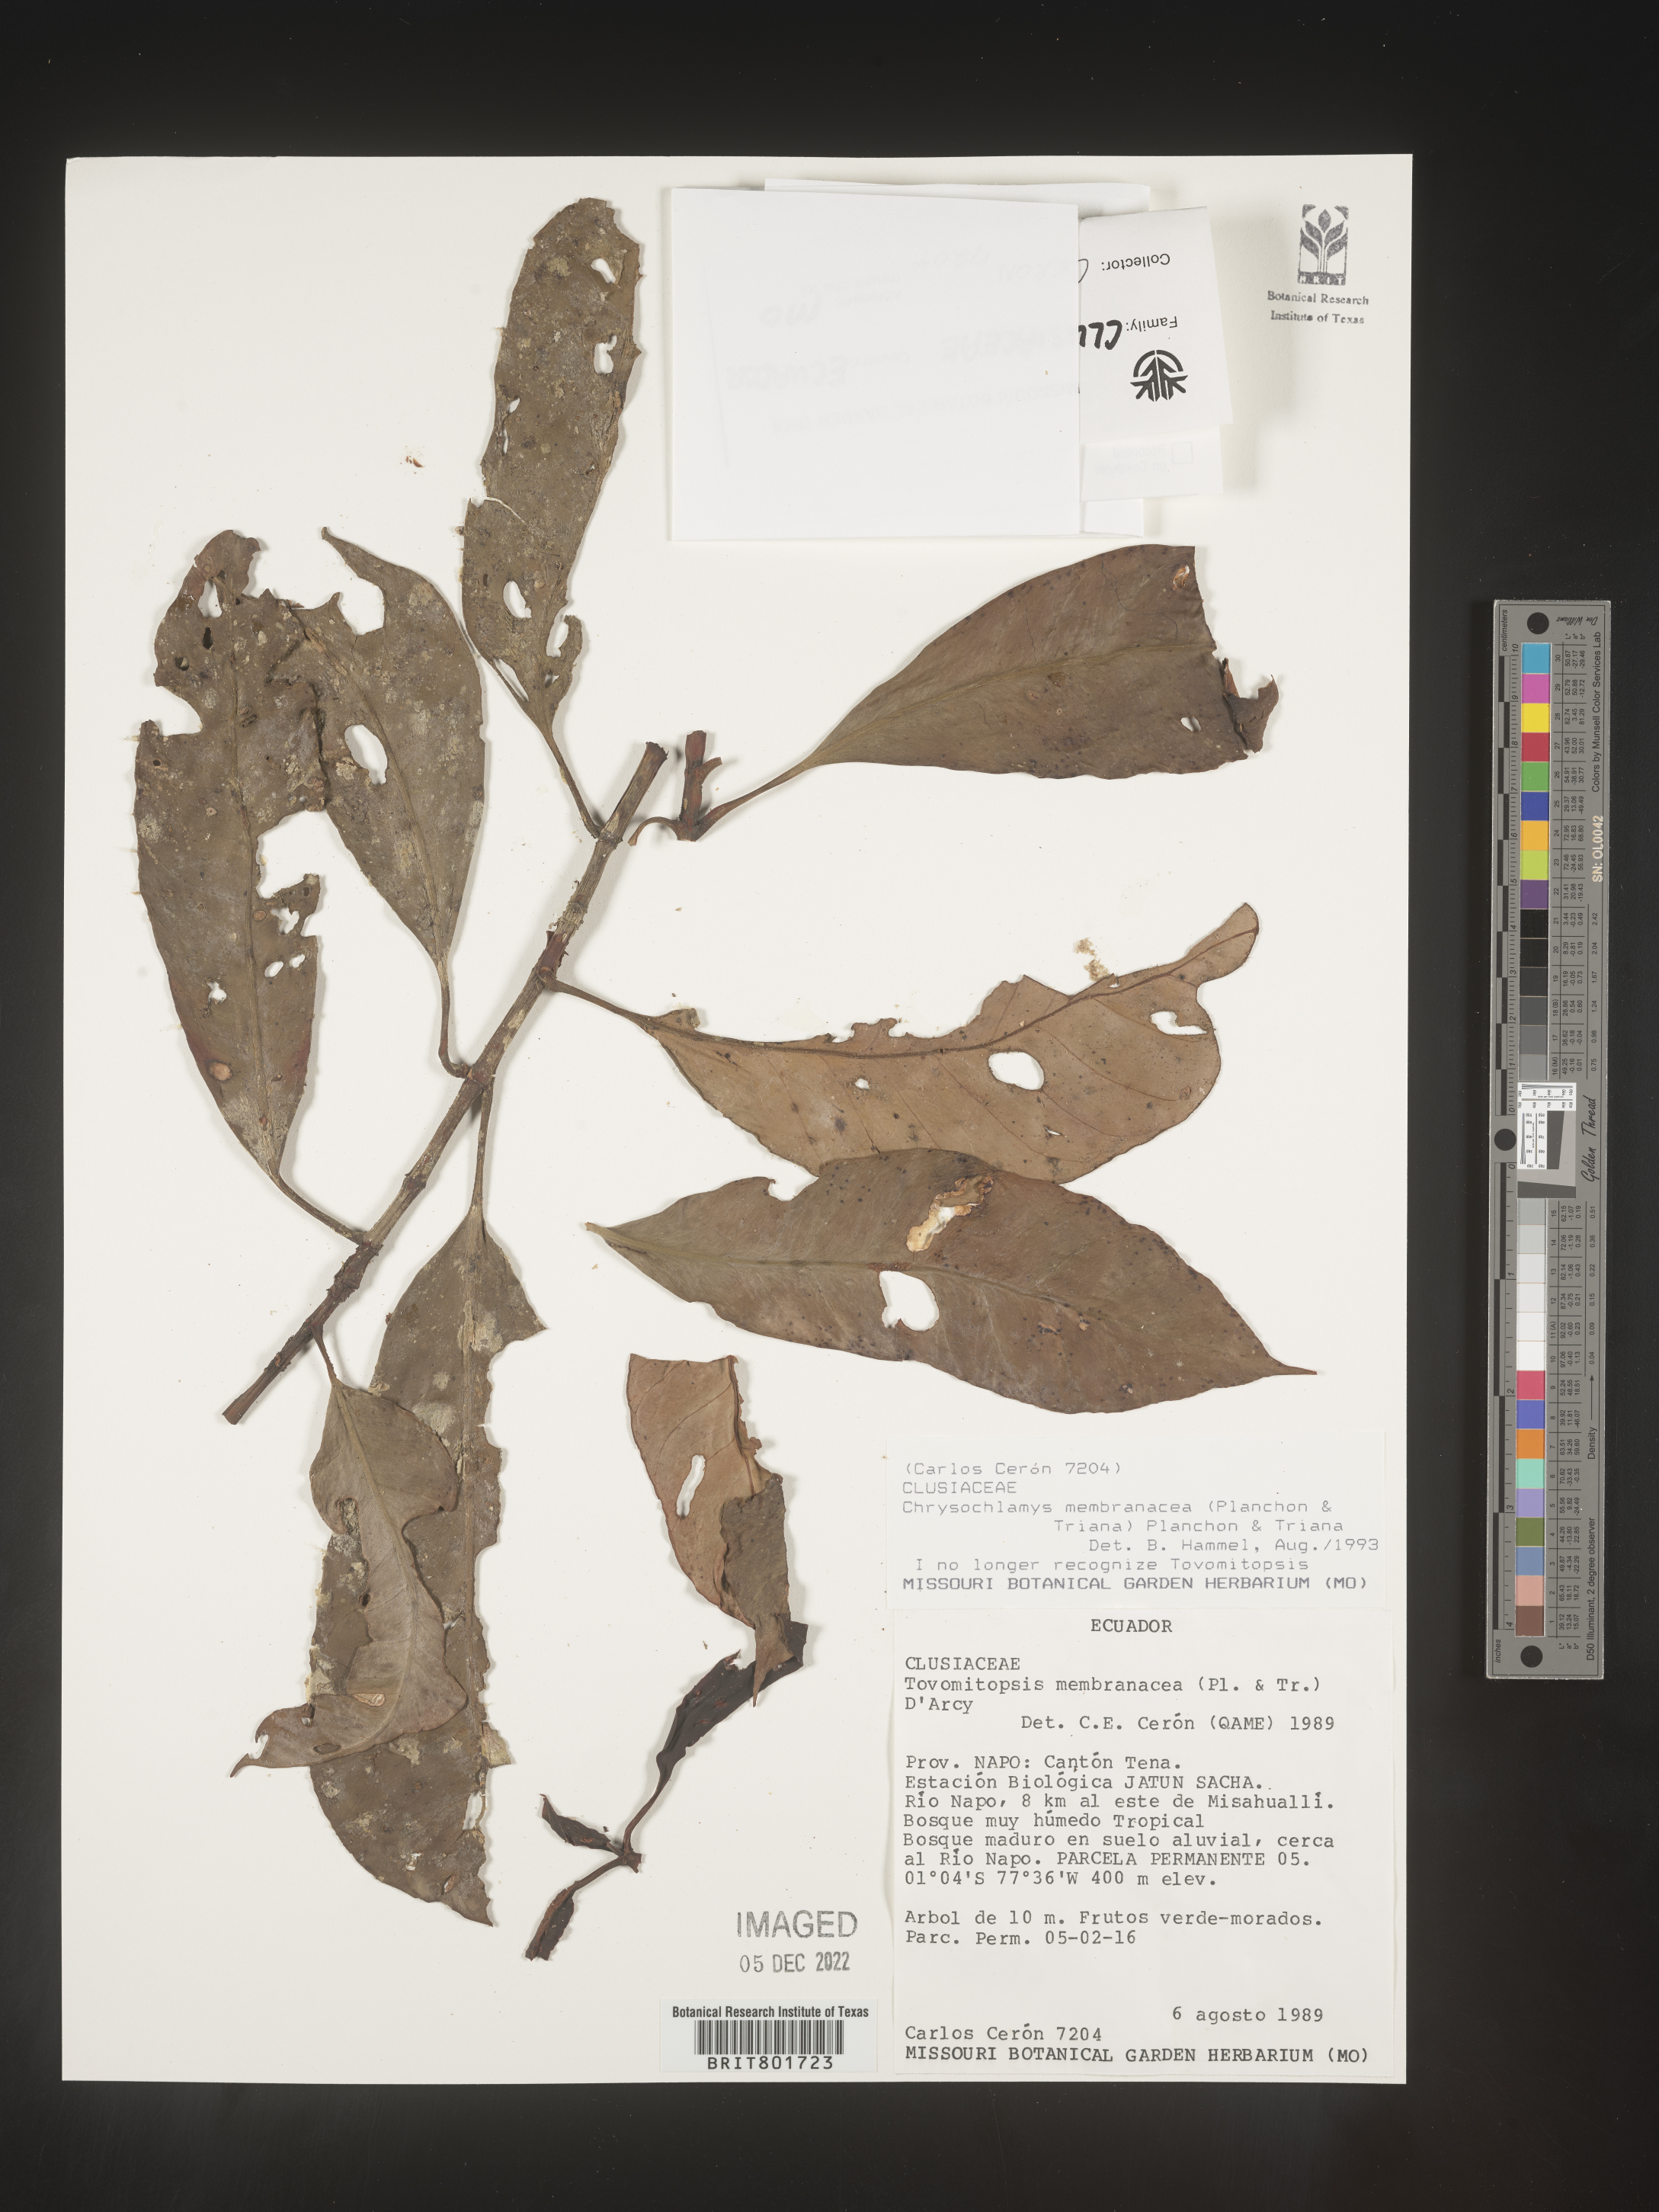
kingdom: Plantae
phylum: Tracheophyta
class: Magnoliopsida
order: Malpighiales
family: Clusiaceae
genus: Chrysochlamys
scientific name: Chrysochlamys membranacea
